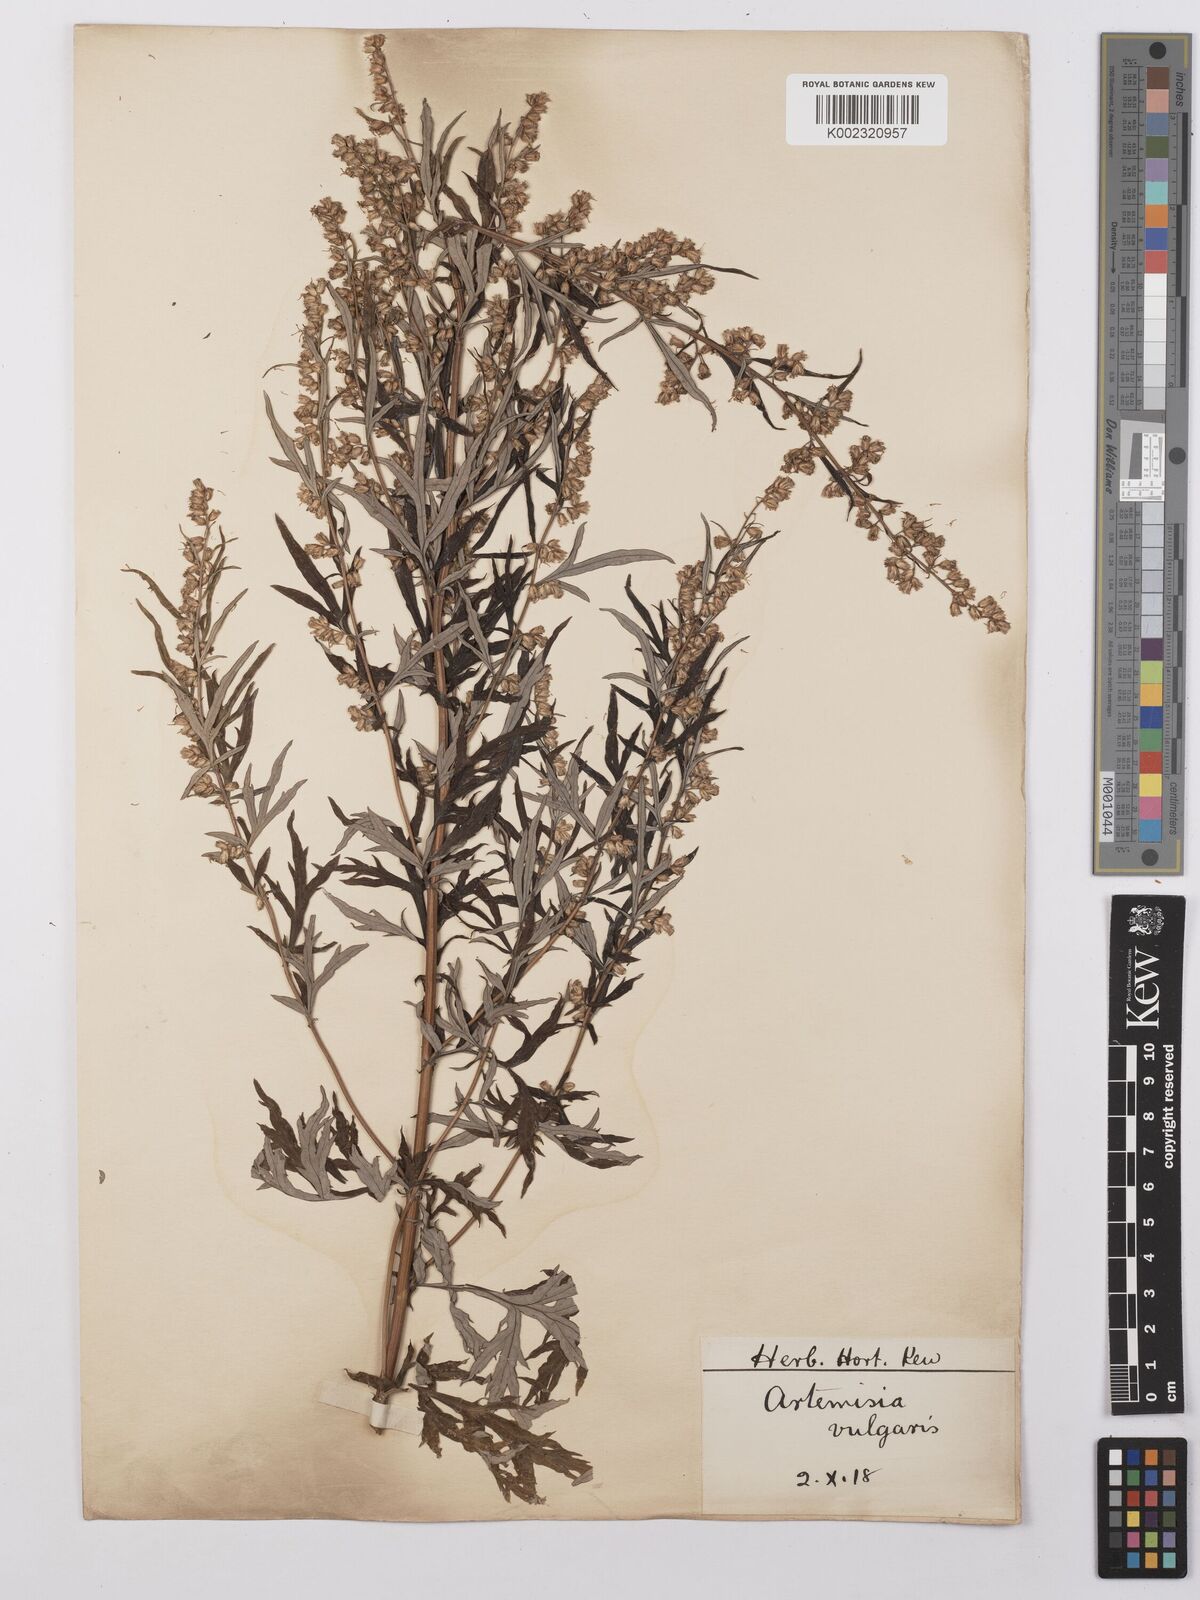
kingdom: Plantae
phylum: Tracheophyta
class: Magnoliopsida
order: Asterales
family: Asteraceae
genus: Artemisia
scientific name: Artemisia vulgaris
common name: Mugwort
